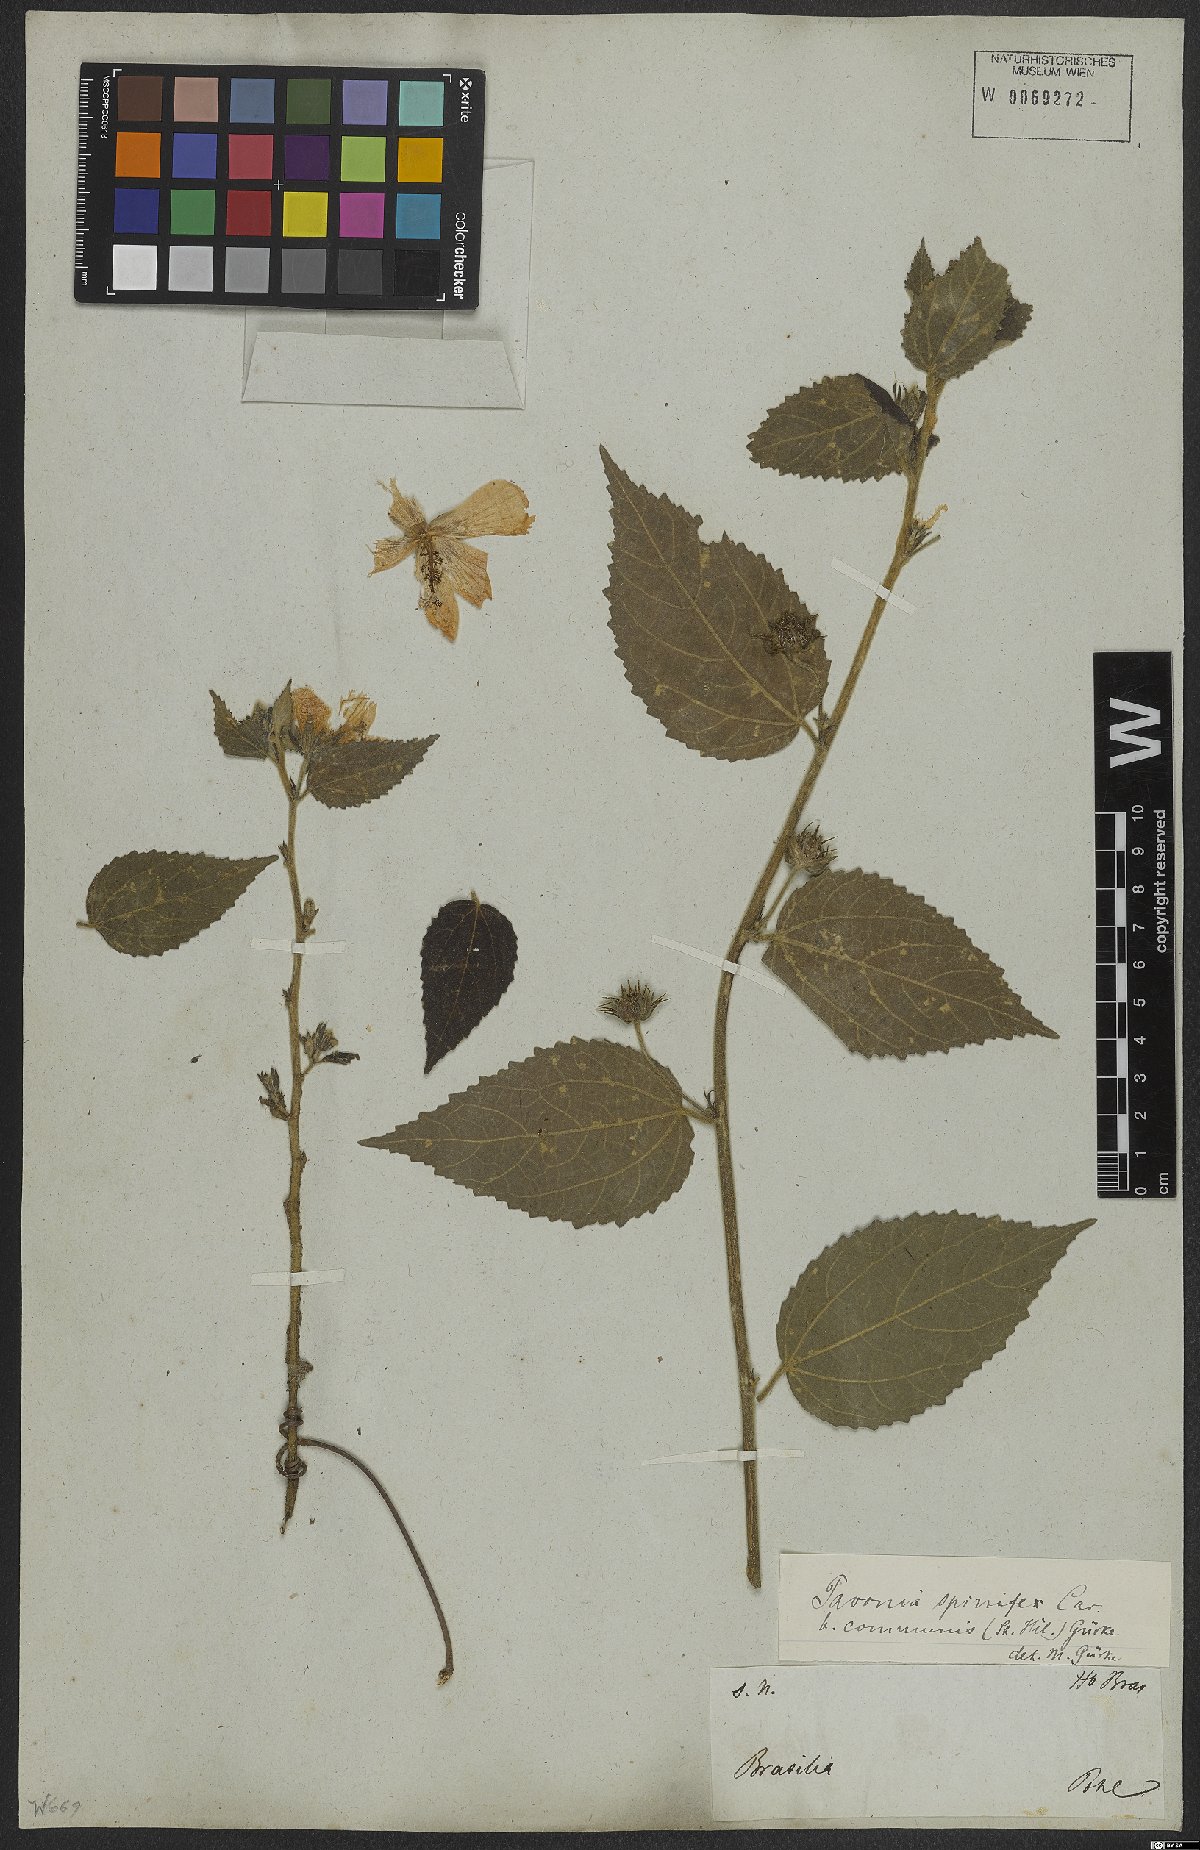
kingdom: Plantae
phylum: Tracheophyta
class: Magnoliopsida
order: Malvales
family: Malvaceae
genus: Pavonia
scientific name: Pavonia communis
